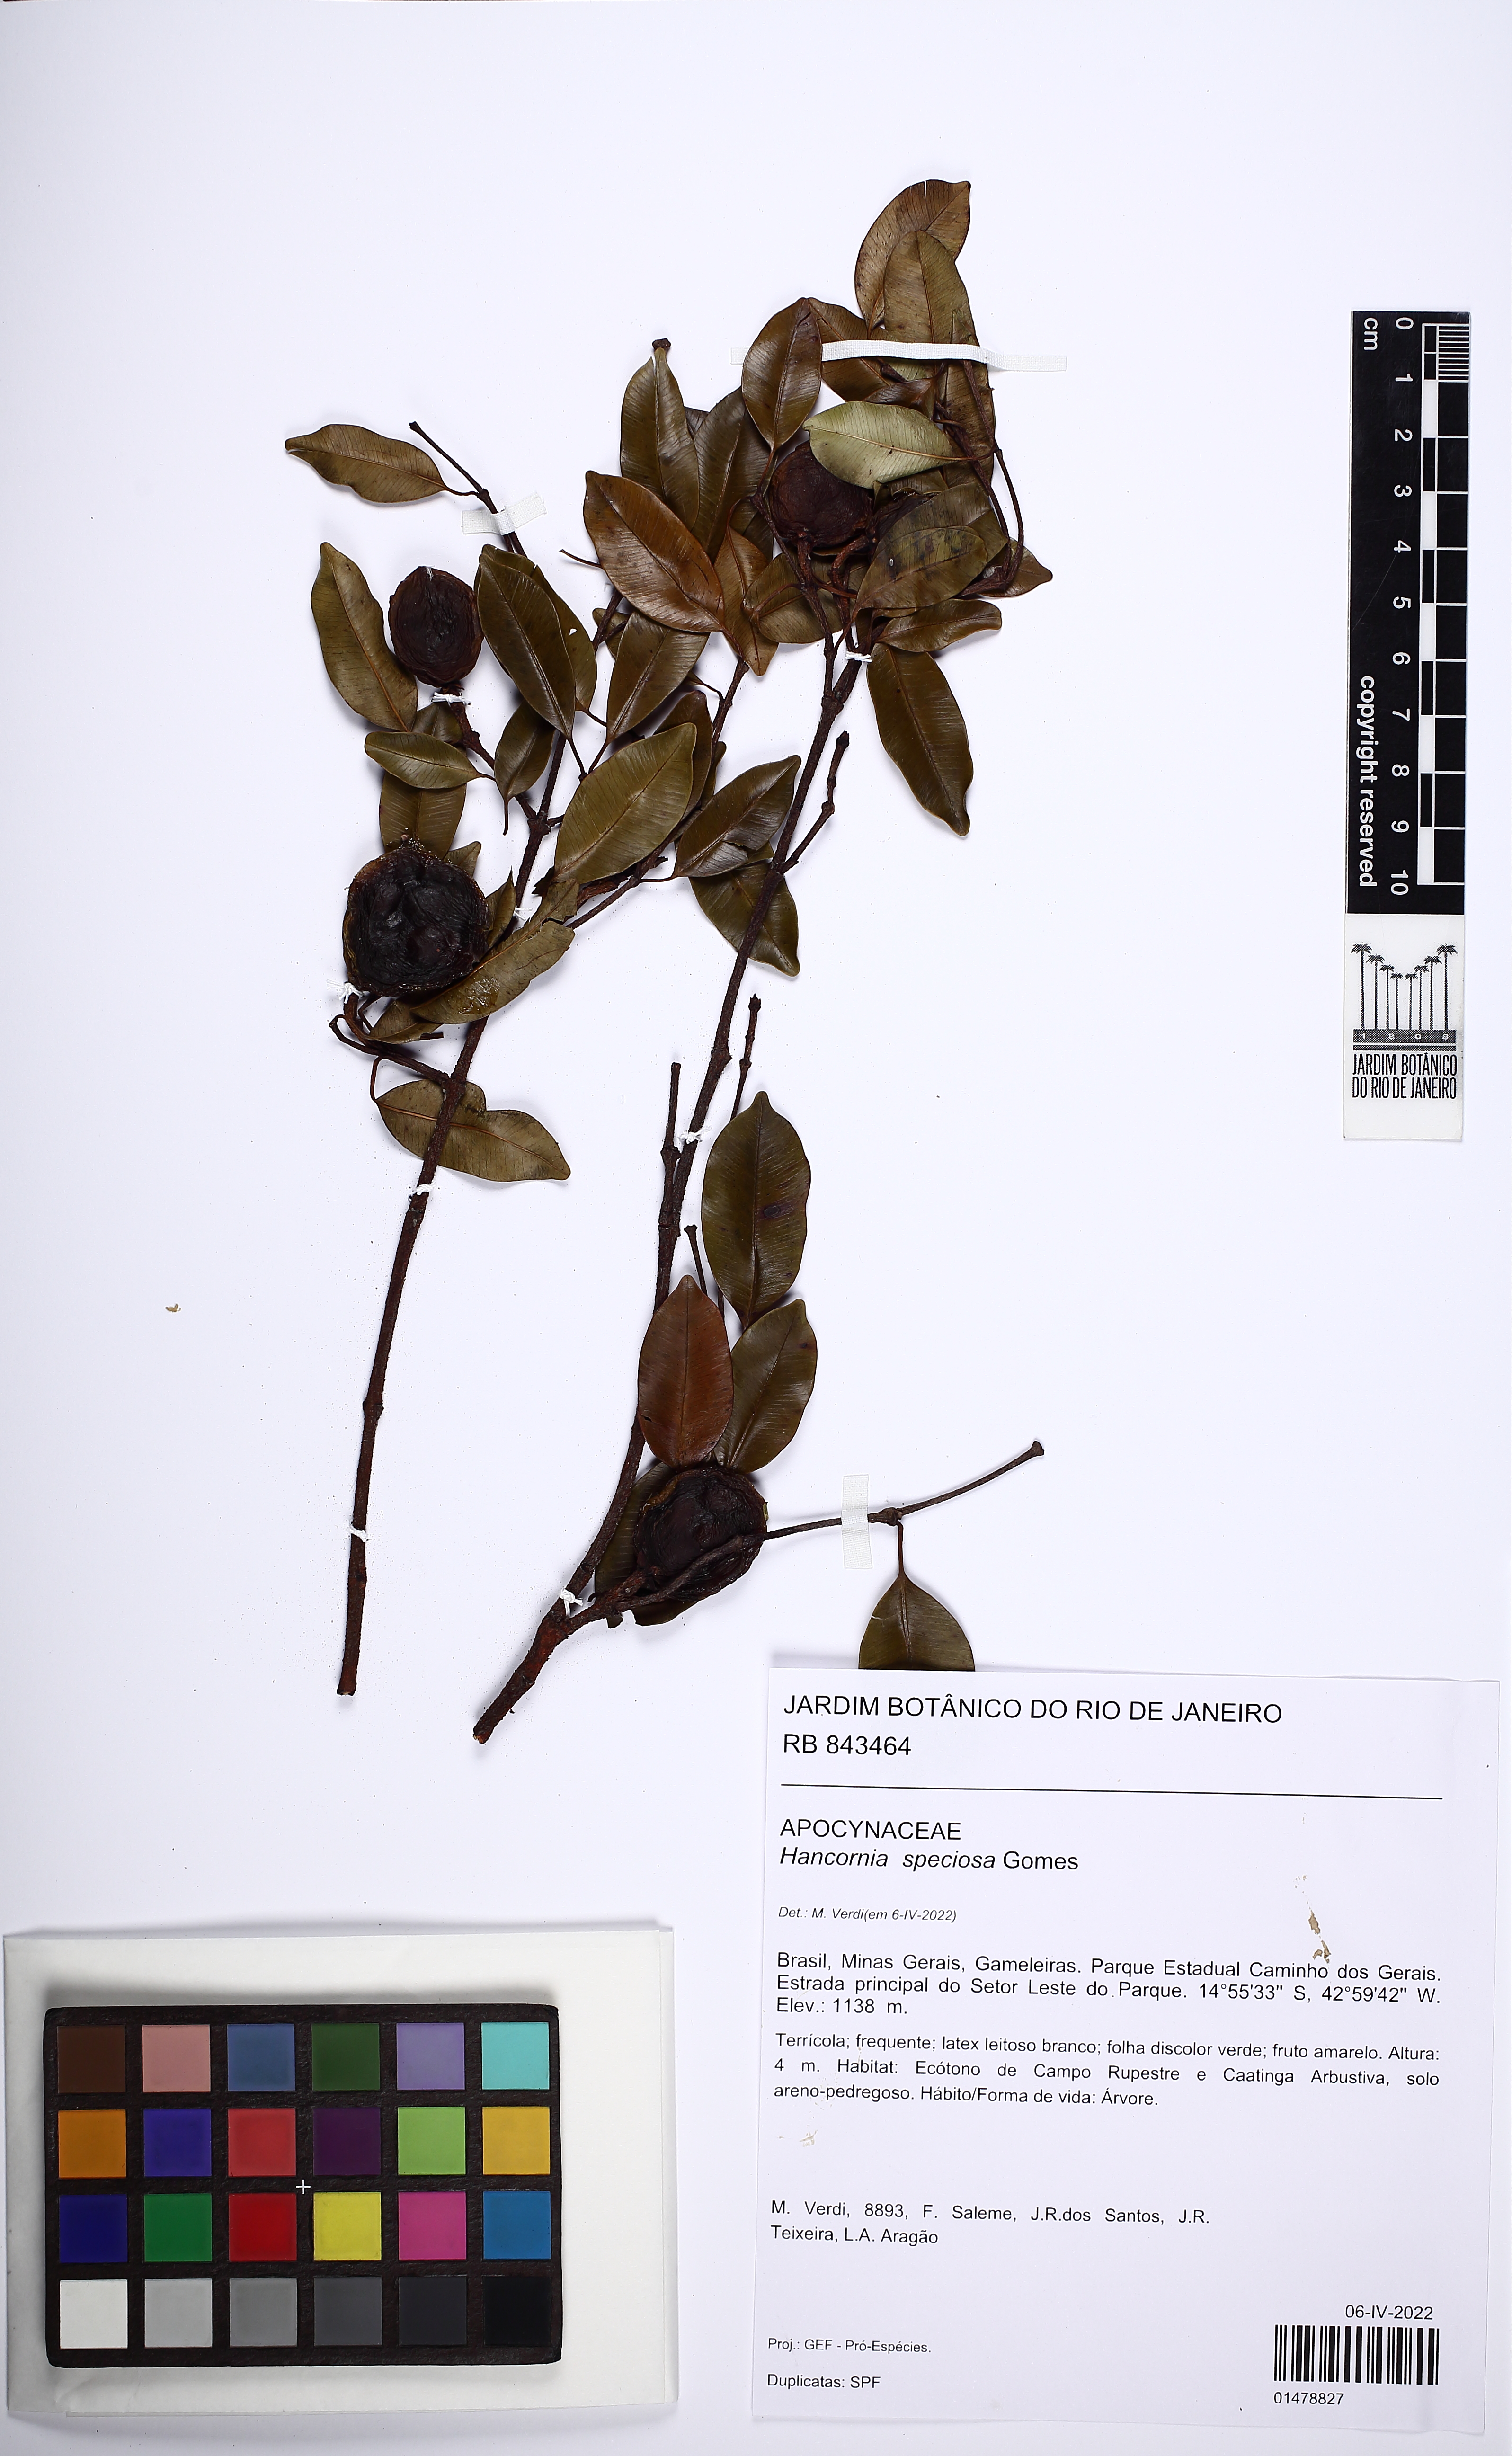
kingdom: Plantae
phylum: Tracheophyta
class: Magnoliopsida
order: Gentianales
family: Apocynaceae
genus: Hancornia
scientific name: Hancornia speciosa
